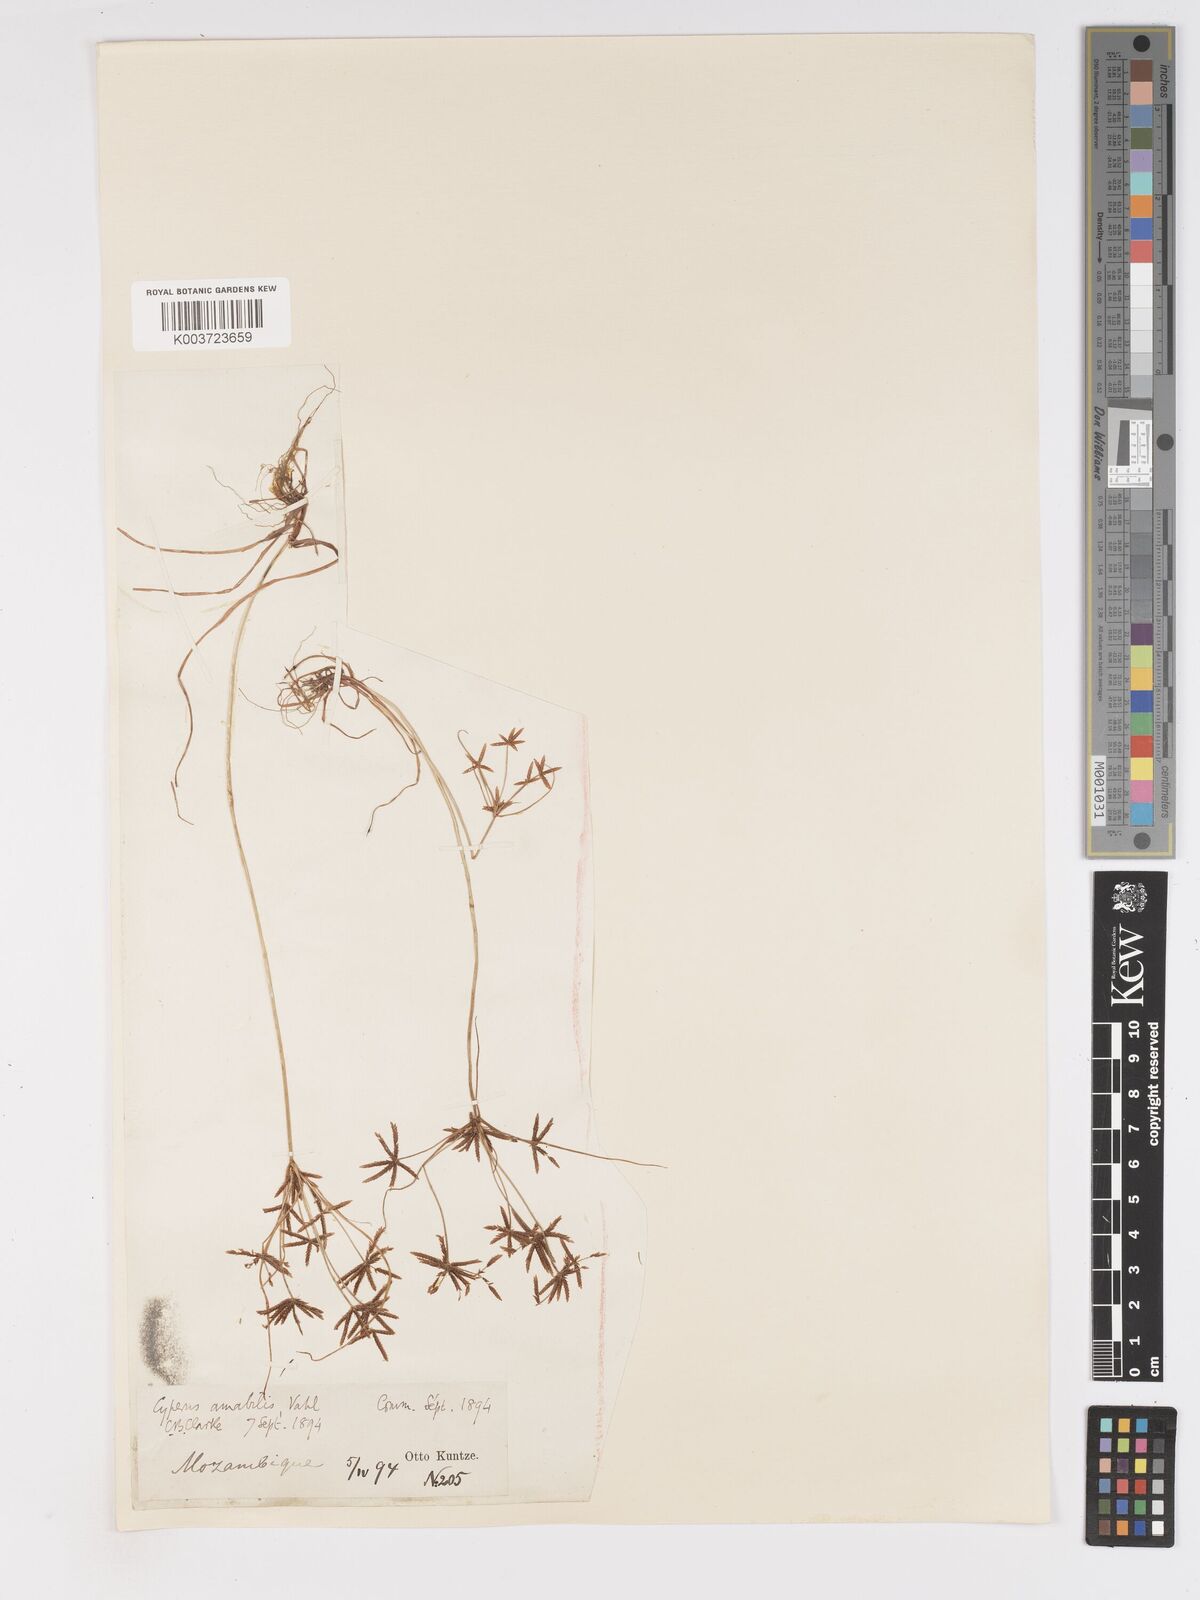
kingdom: Plantae
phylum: Tracheophyta
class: Liliopsida
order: Poales
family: Cyperaceae
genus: Cyperus
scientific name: Cyperus amabilis
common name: Foothill flat sedge
